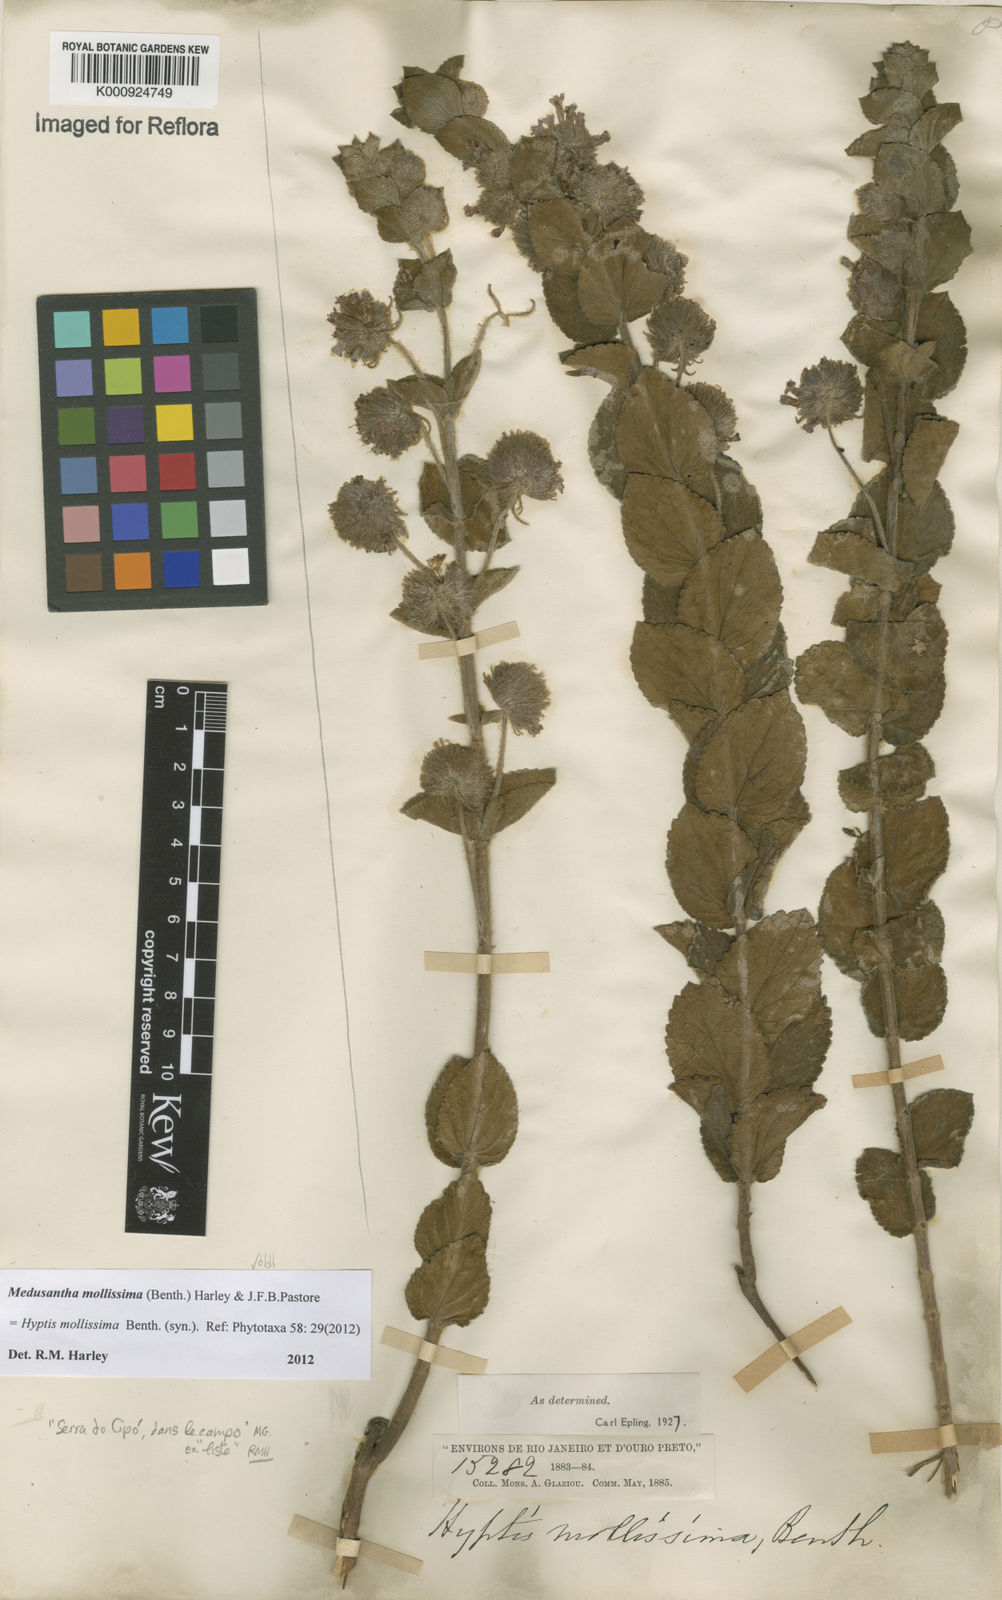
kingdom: Plantae
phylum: Tracheophyta
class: Magnoliopsida
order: Lamiales
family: Lamiaceae
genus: Medusantha
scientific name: Medusantha mollissima
